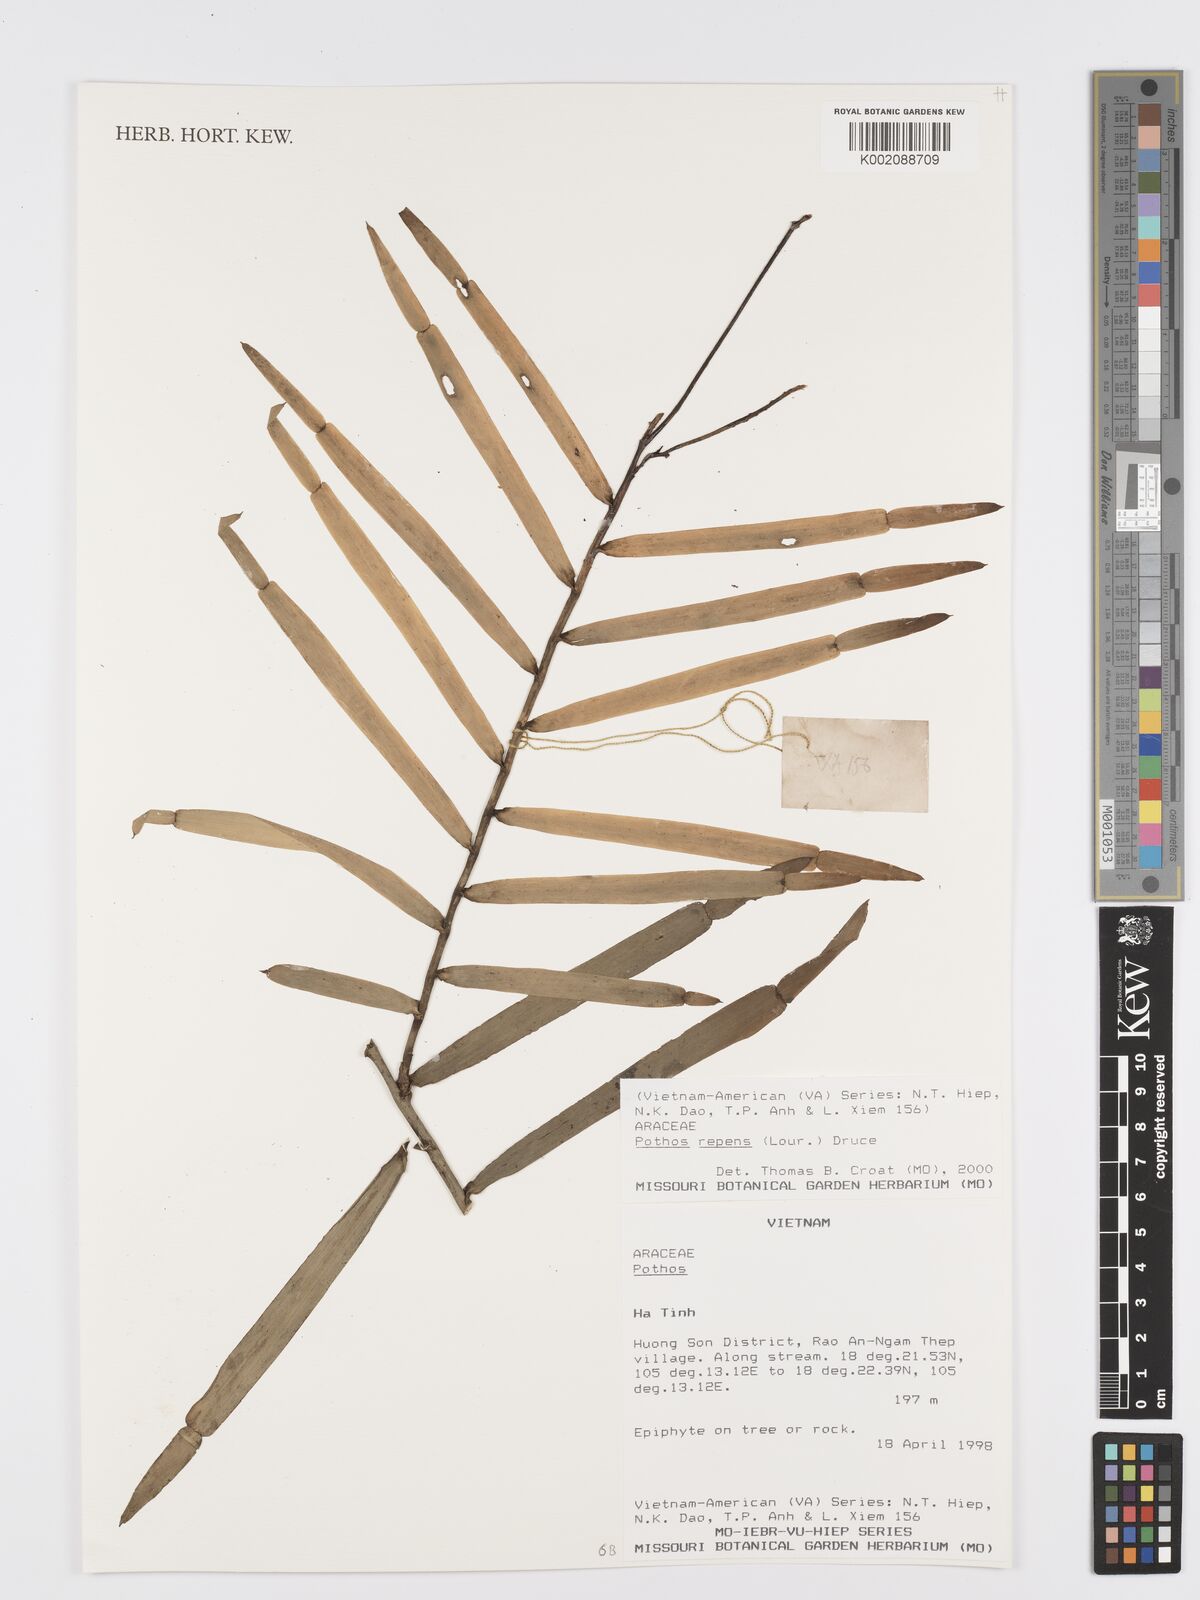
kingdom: Plantae
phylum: Tracheophyta
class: Liliopsida
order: Alismatales
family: Araceae
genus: Pothos
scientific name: Pothos repens
